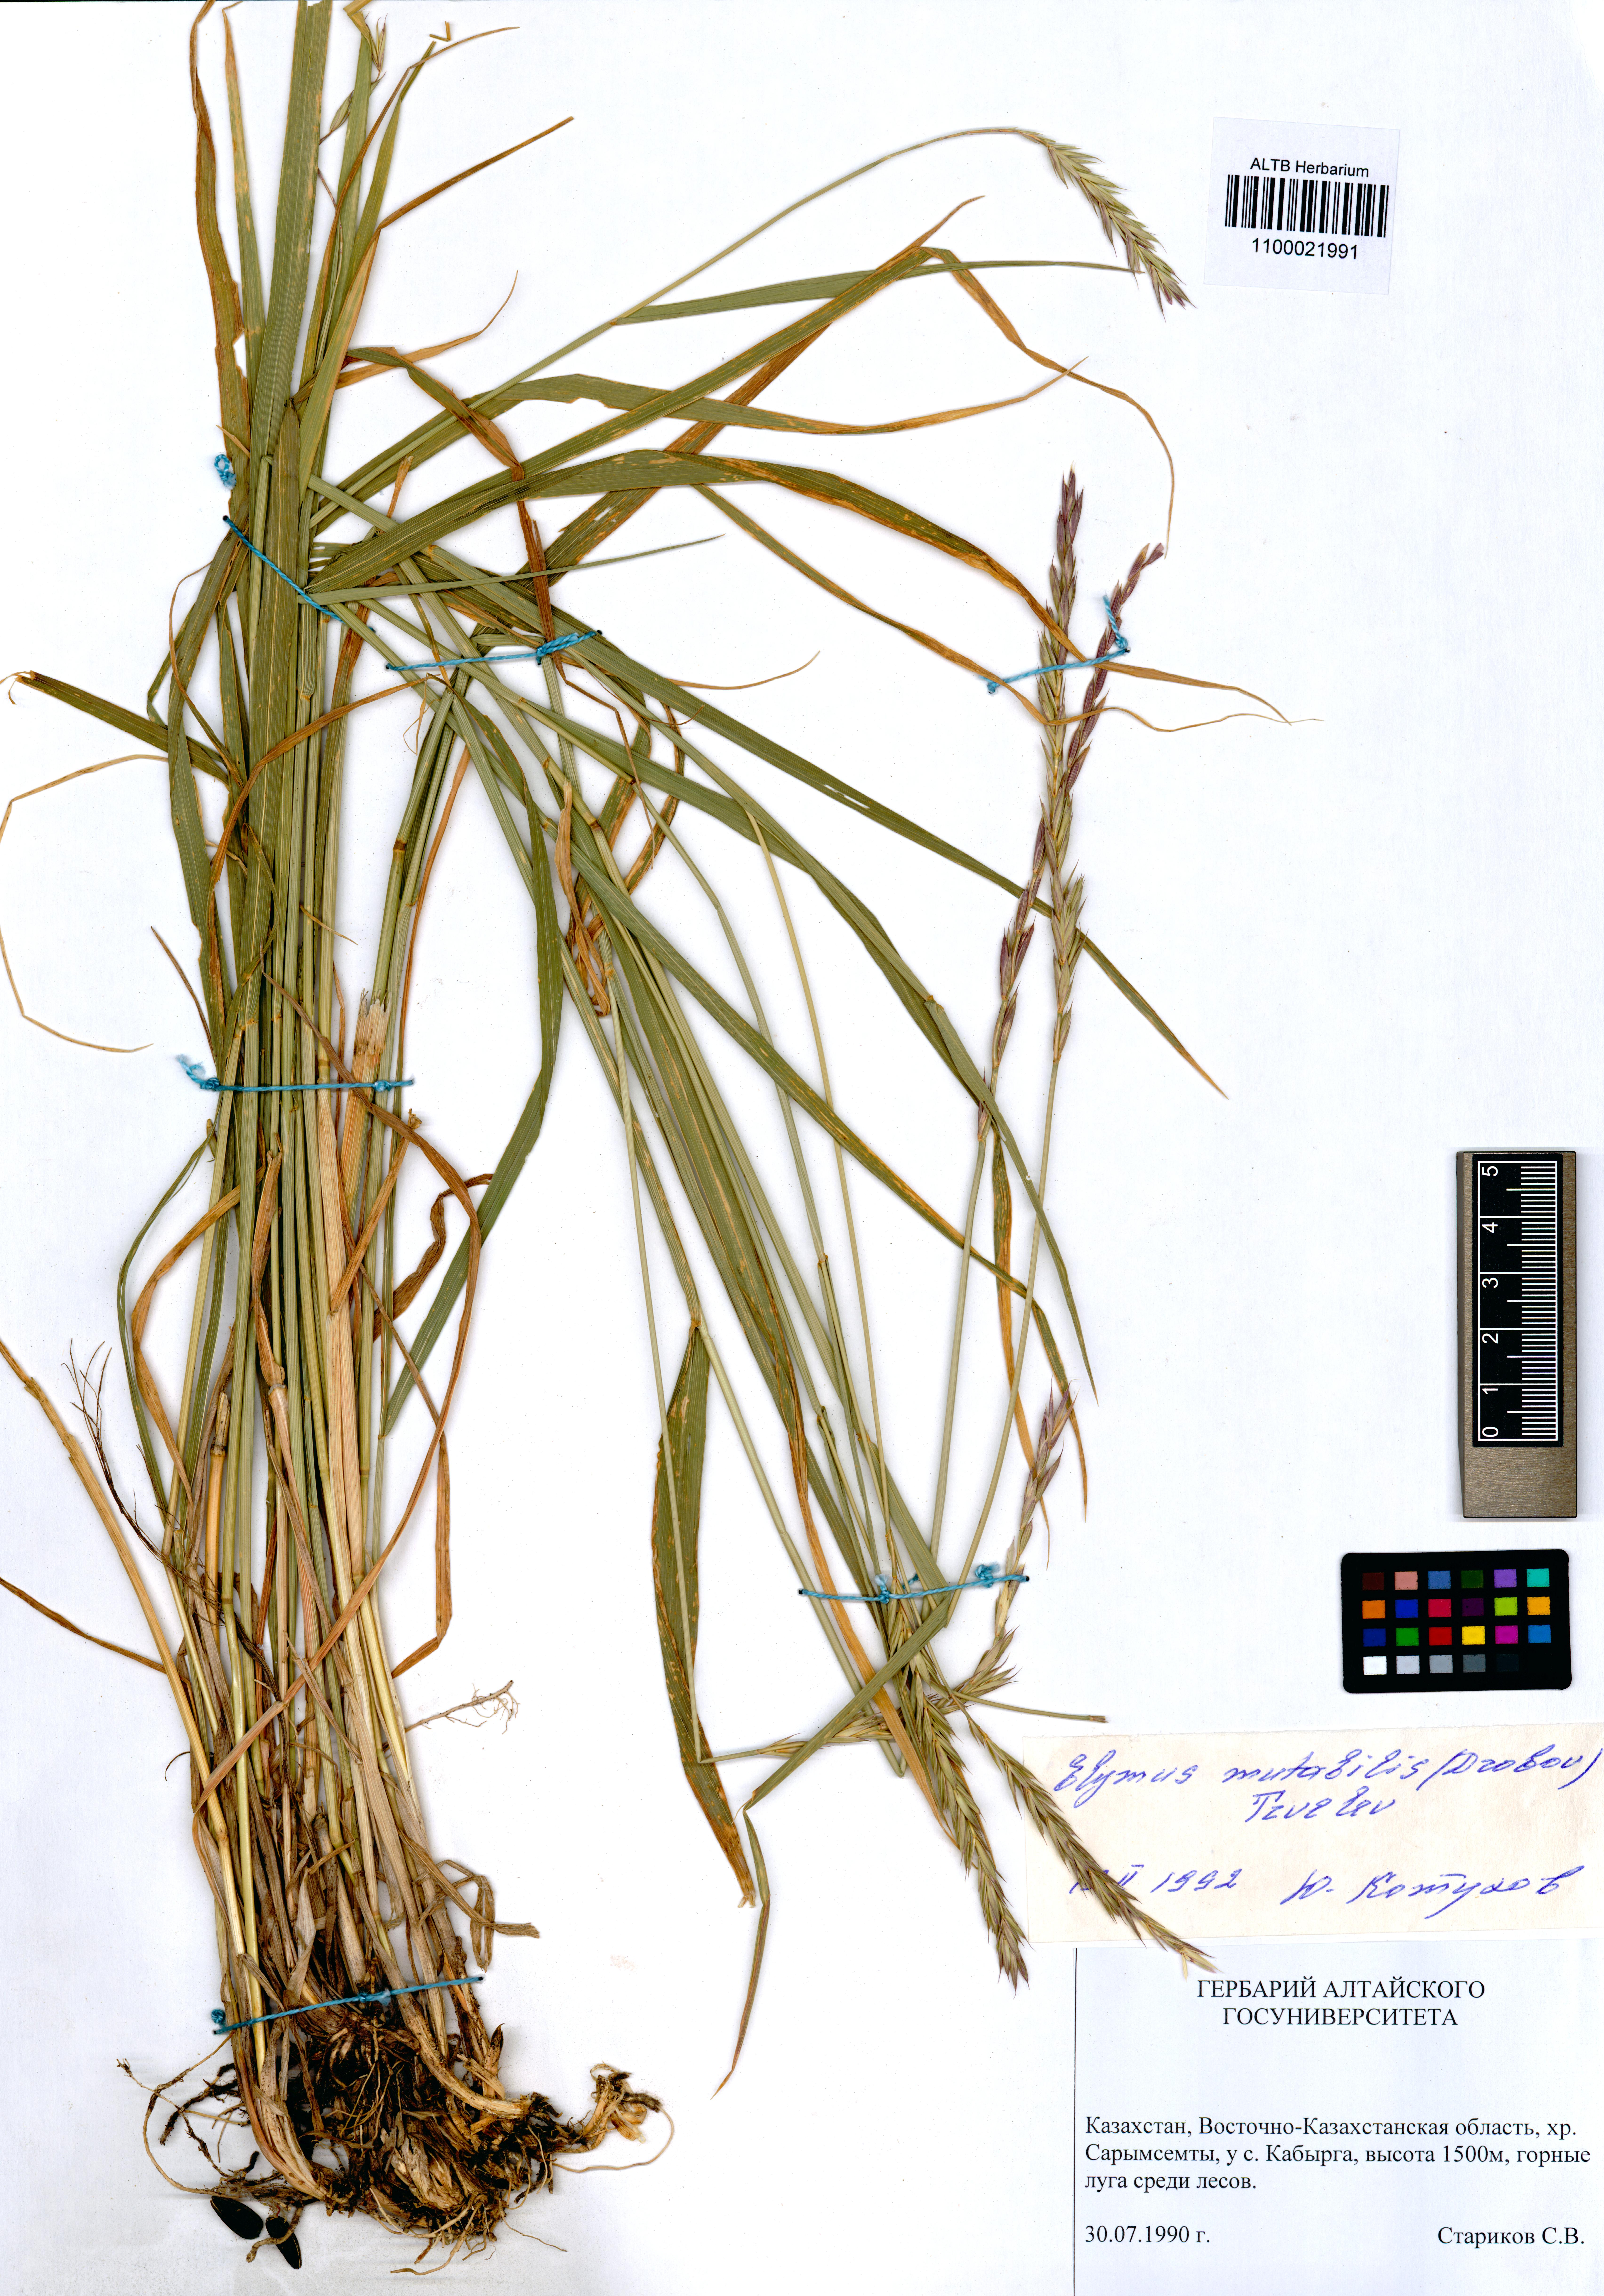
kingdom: Plantae
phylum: Tracheophyta
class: Liliopsida
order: Poales
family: Poaceae
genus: Elymus
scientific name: Elymus mutabilis
